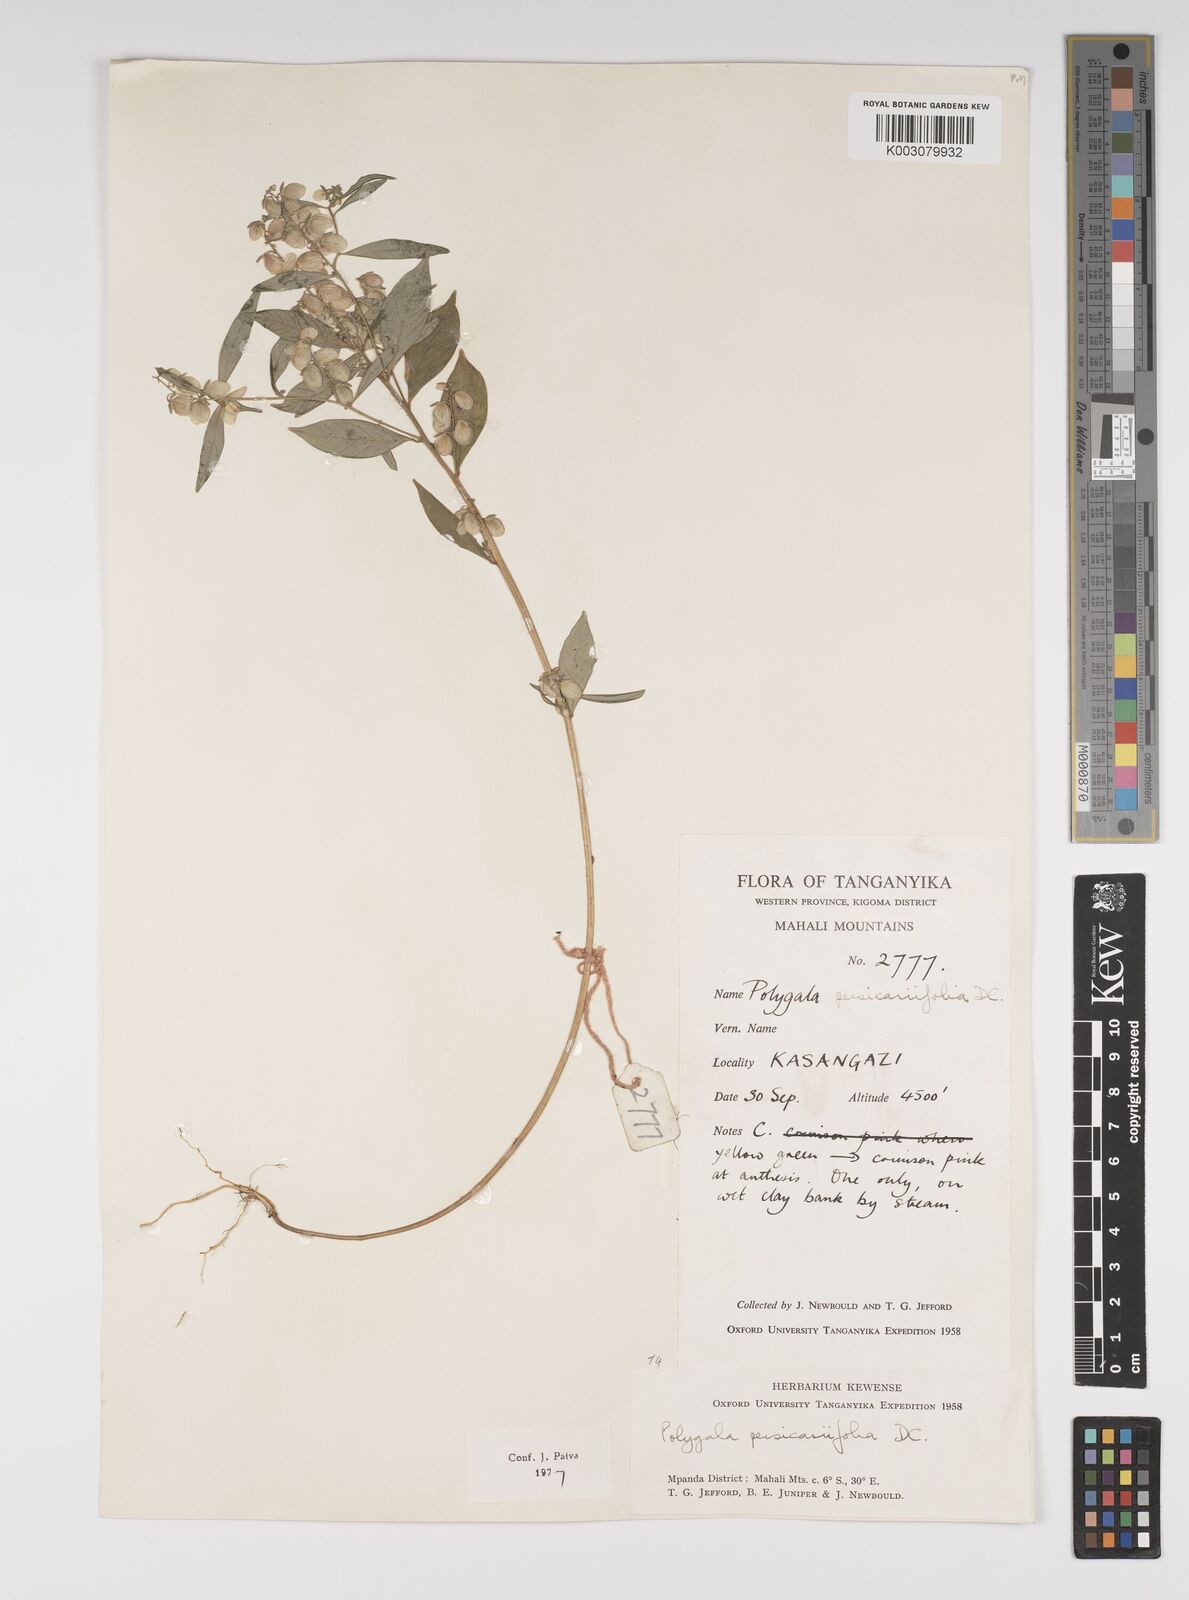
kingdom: Plantae
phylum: Tracheophyta
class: Magnoliopsida
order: Fabales
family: Polygalaceae
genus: Polygala
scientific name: Polygala persicariifolia
